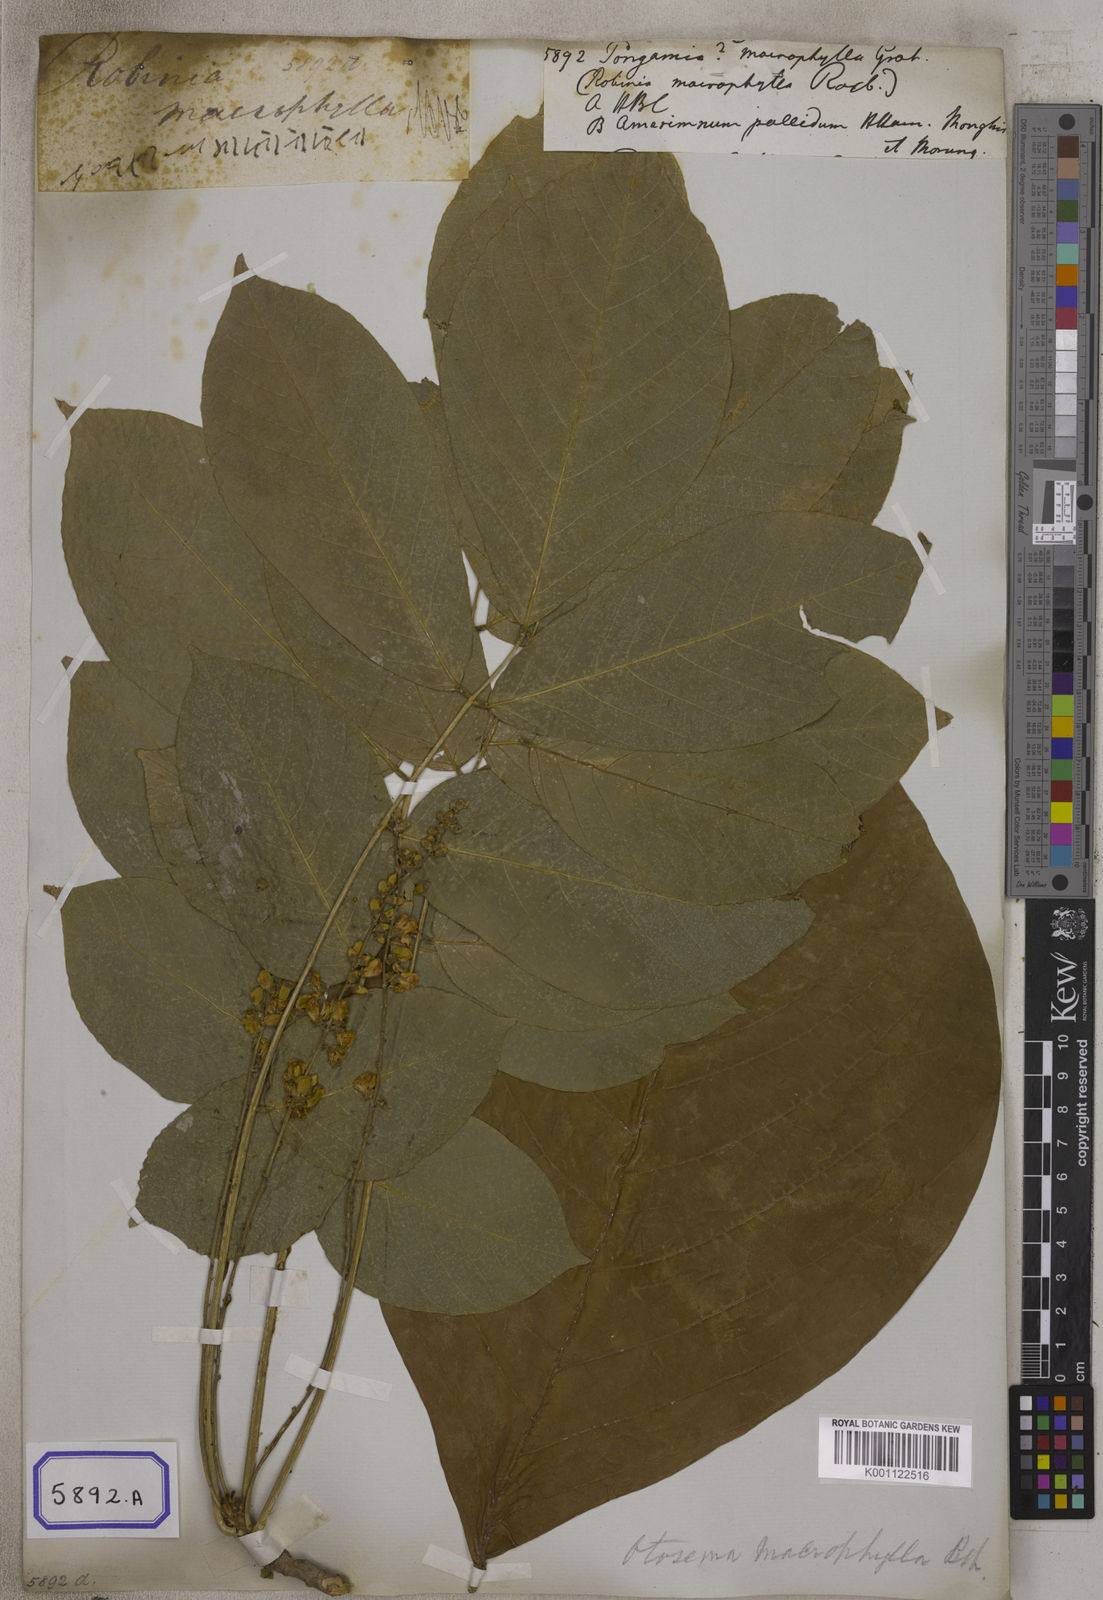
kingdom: Plantae
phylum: Tracheophyta
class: Magnoliopsida
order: Fabales
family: Fabaceae
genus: Pongamia
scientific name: Pongamia
